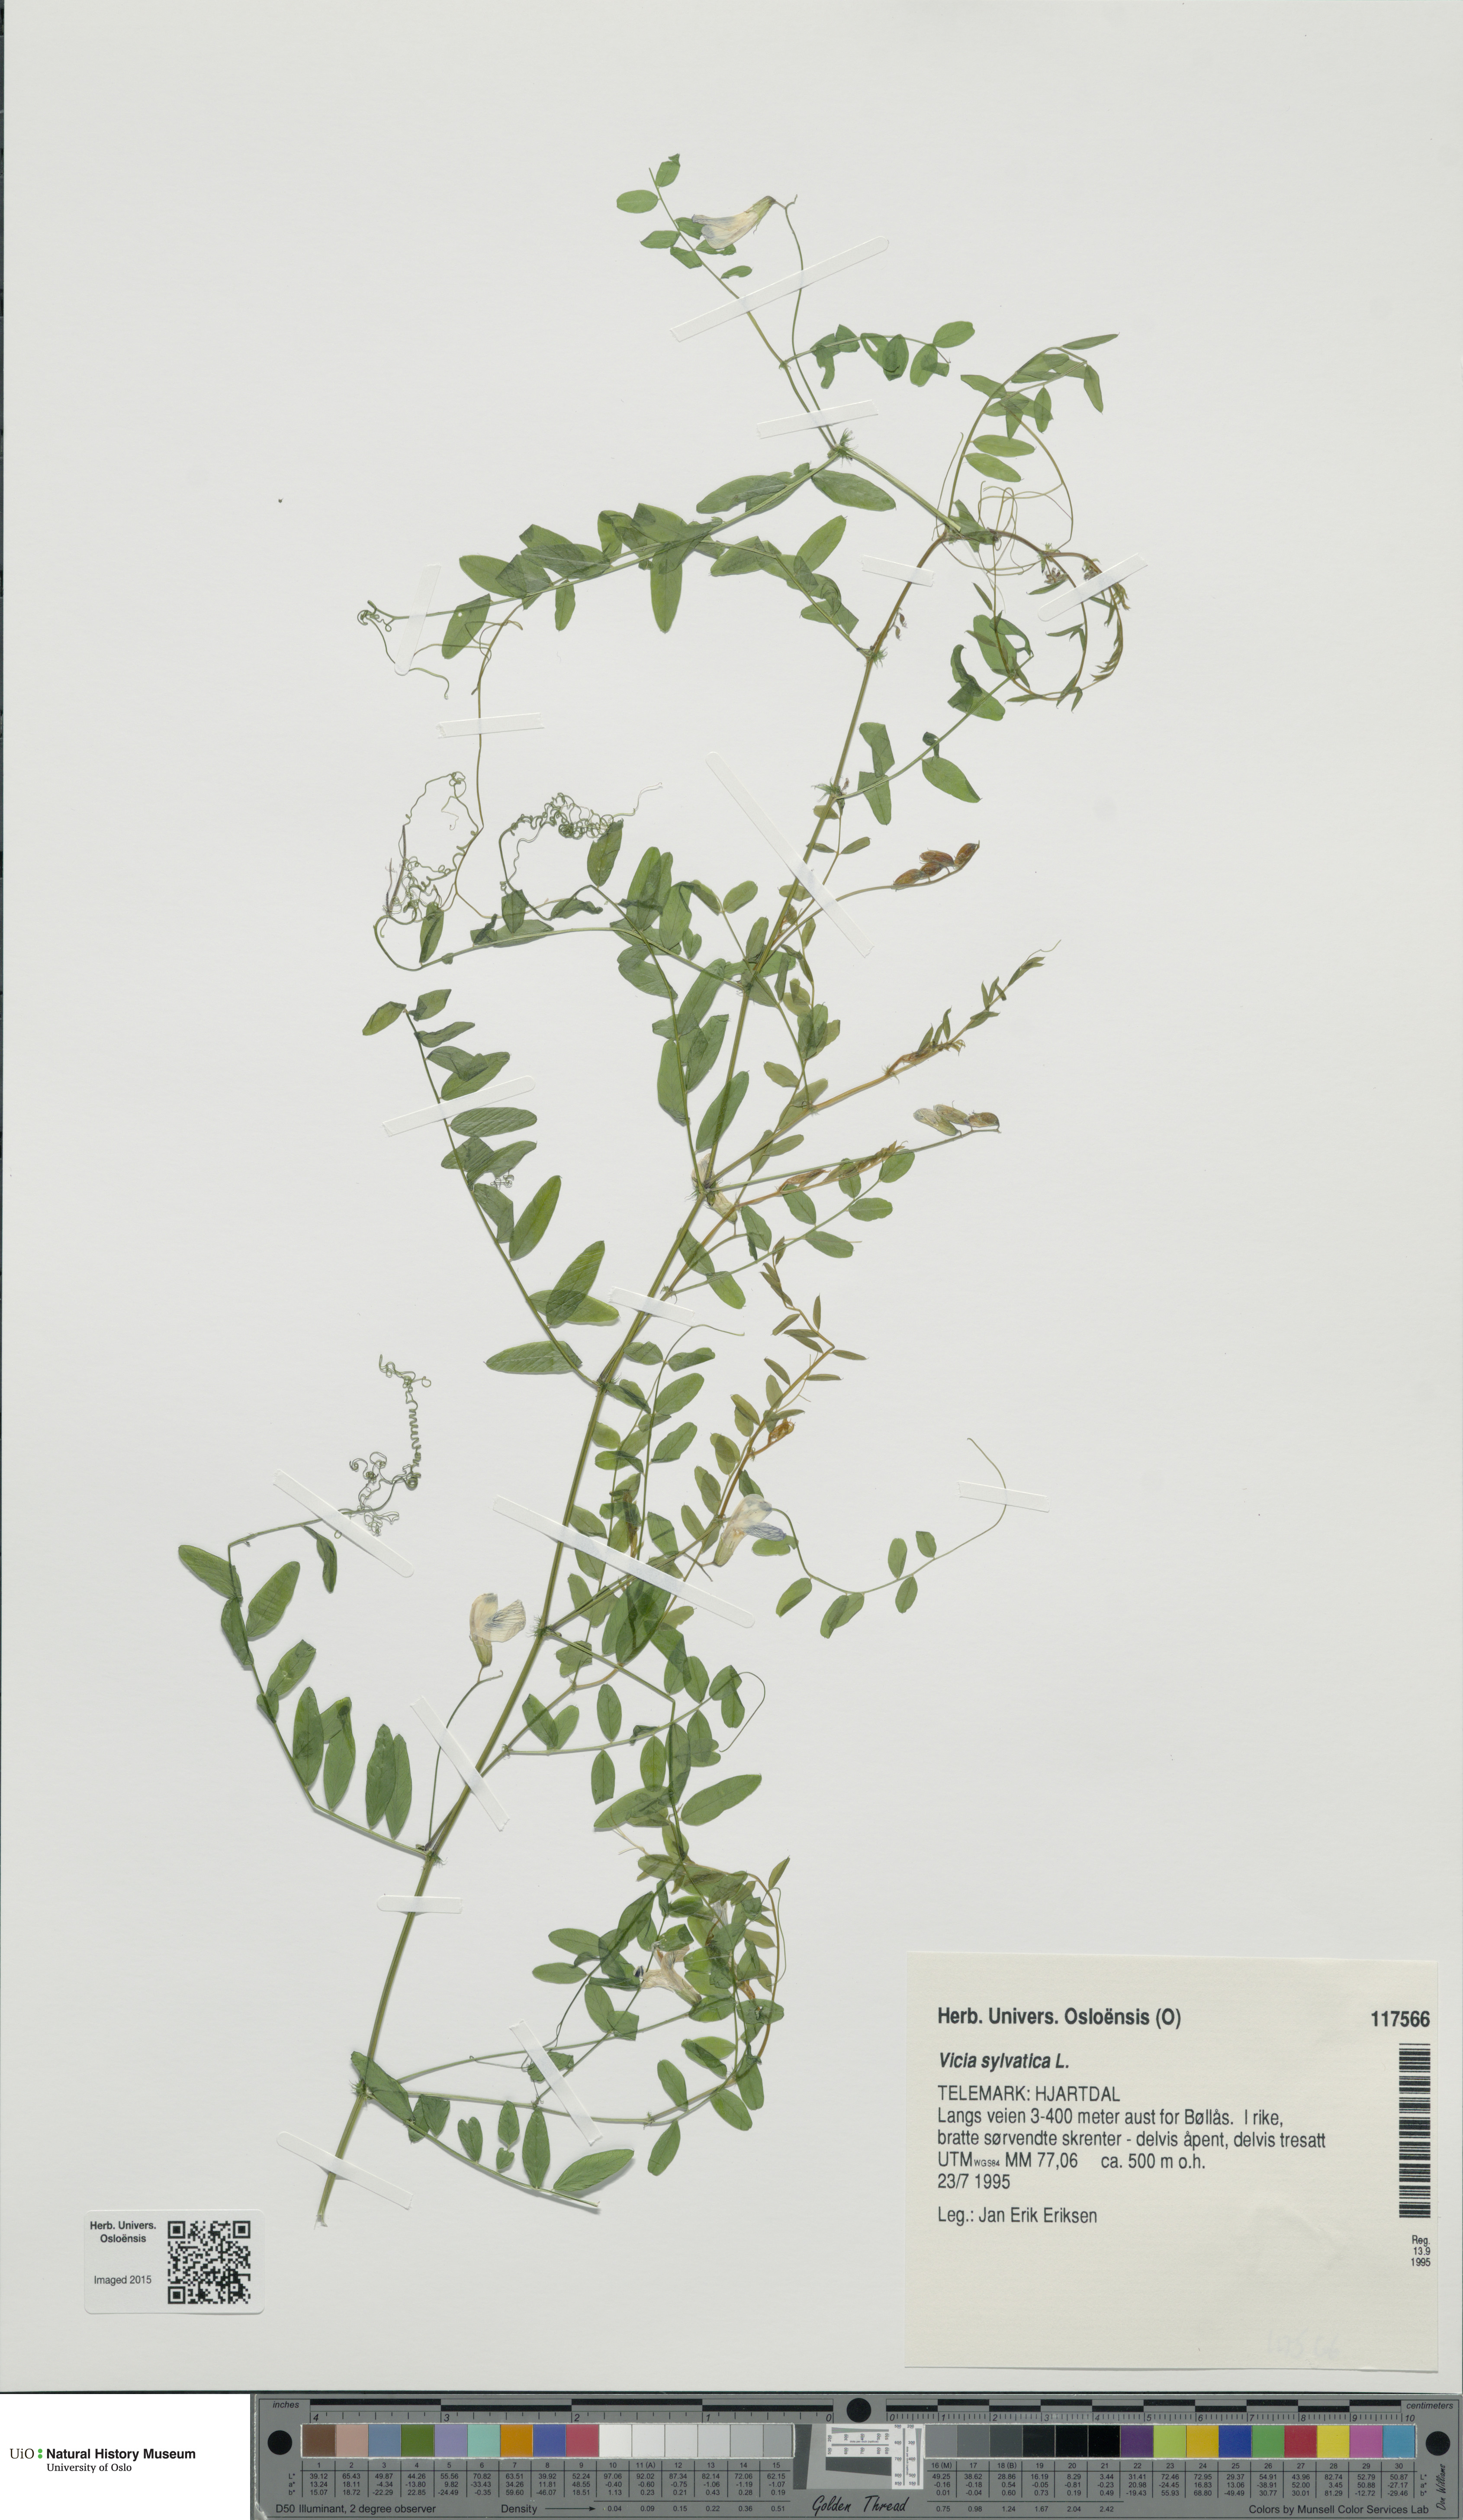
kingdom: Plantae
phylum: Tracheophyta
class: Magnoliopsida
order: Fabales
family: Fabaceae
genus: Vicia
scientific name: Vicia sylvatica
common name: Wood vetch
